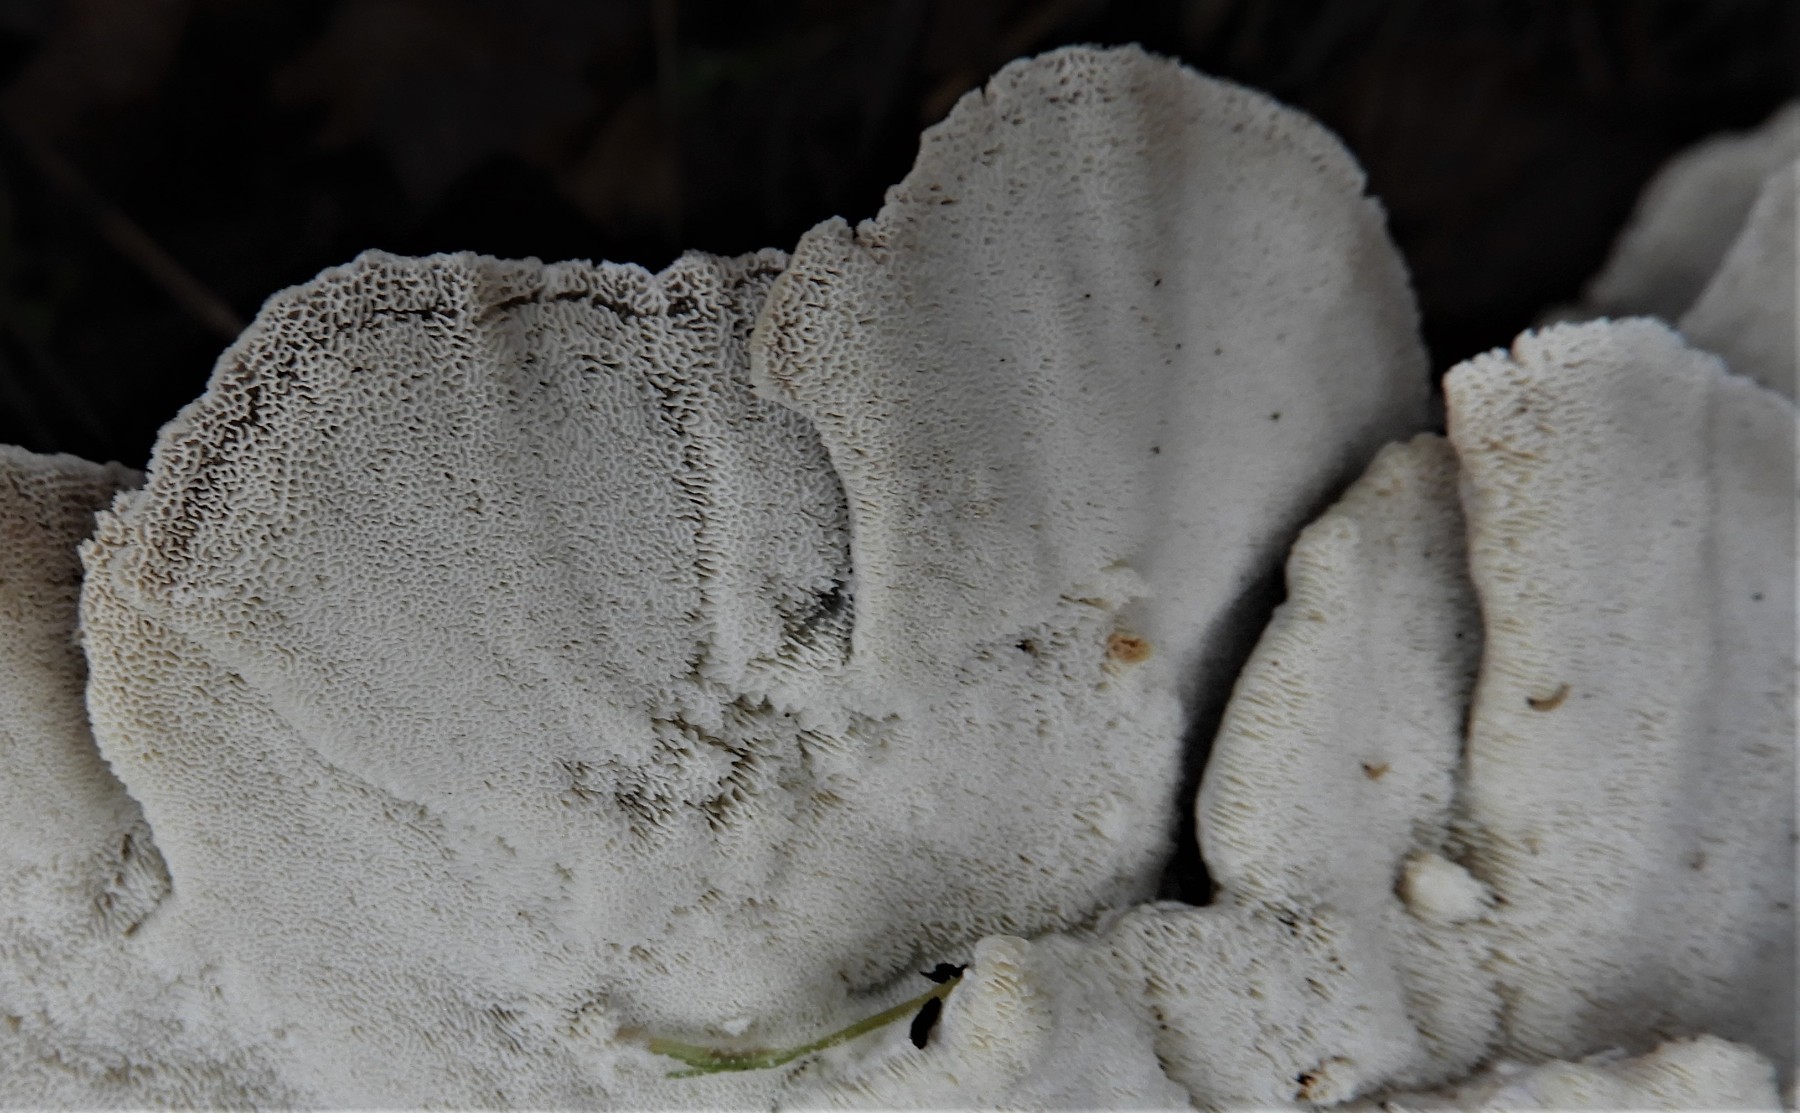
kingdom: Fungi
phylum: Basidiomycota
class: Agaricomycetes
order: Polyporales
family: Polyporaceae
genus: Trametes
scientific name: Trametes versicolor
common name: broget læderporesvamp
